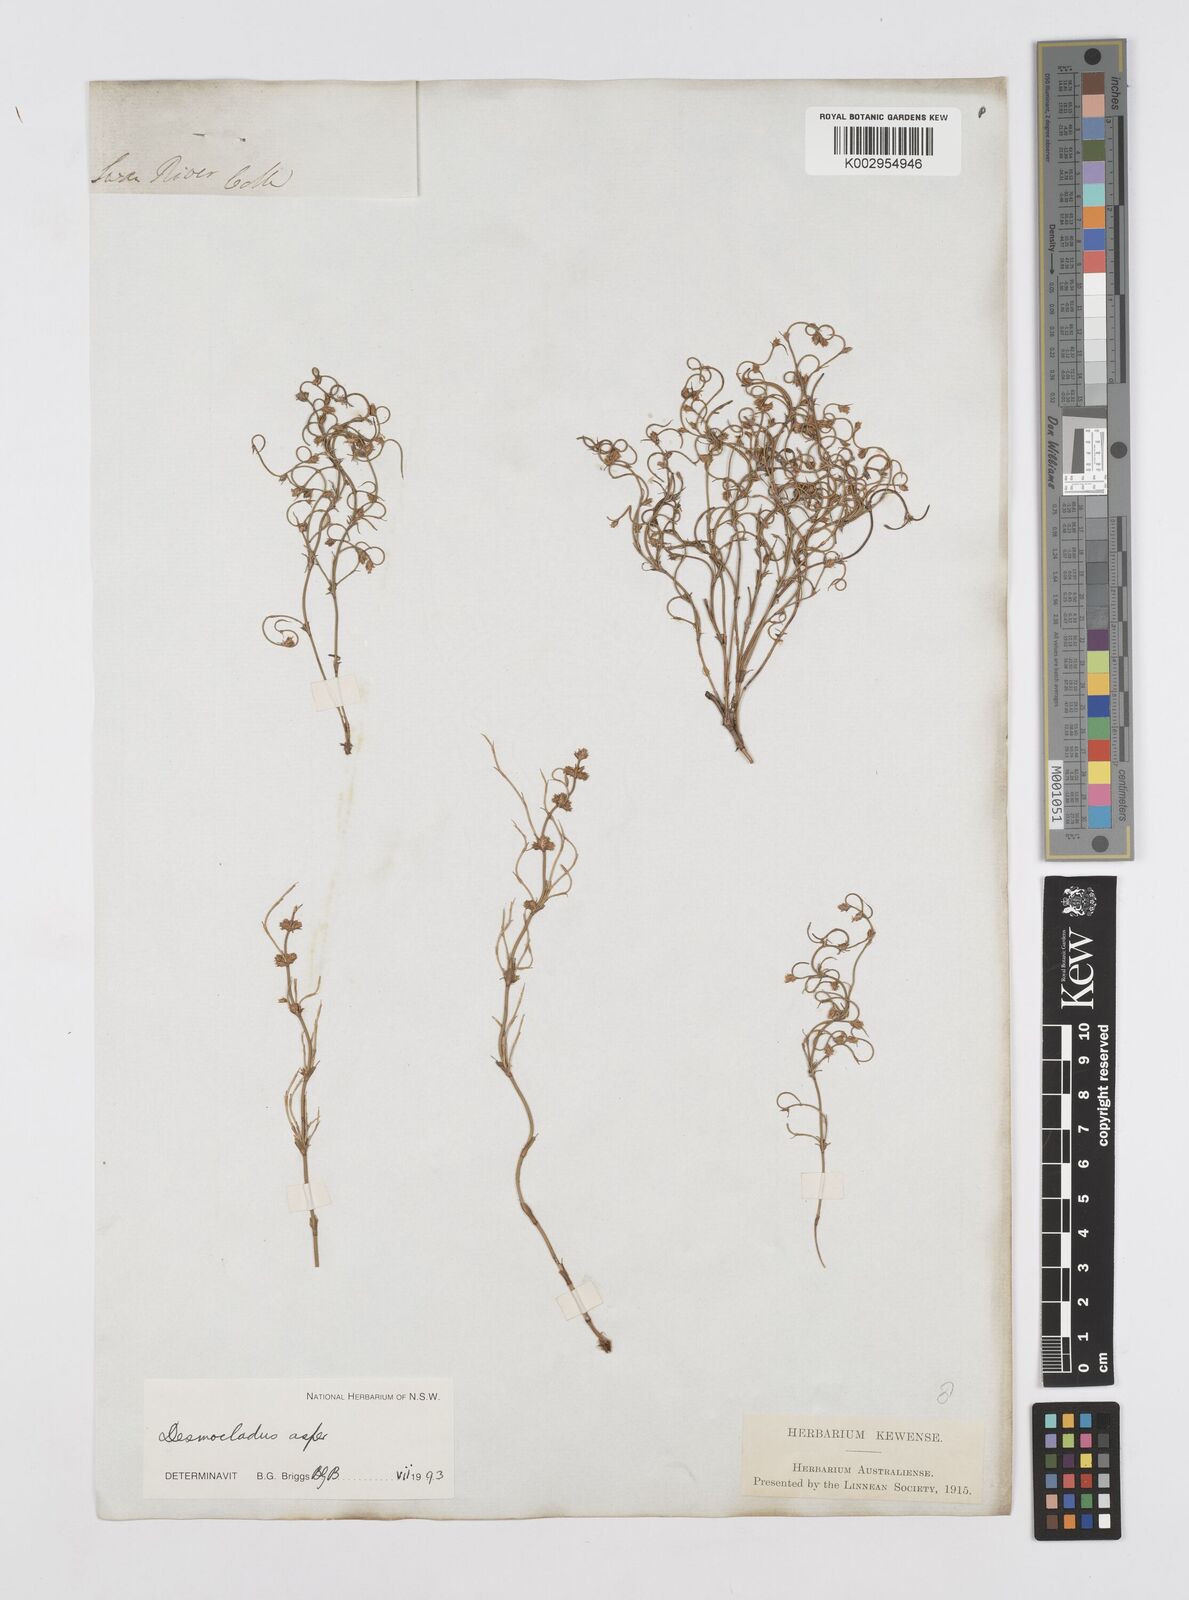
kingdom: Plantae
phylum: Tracheophyta
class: Liliopsida
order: Poales
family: Restionaceae
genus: Desmocladus
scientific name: Desmocladus asper
